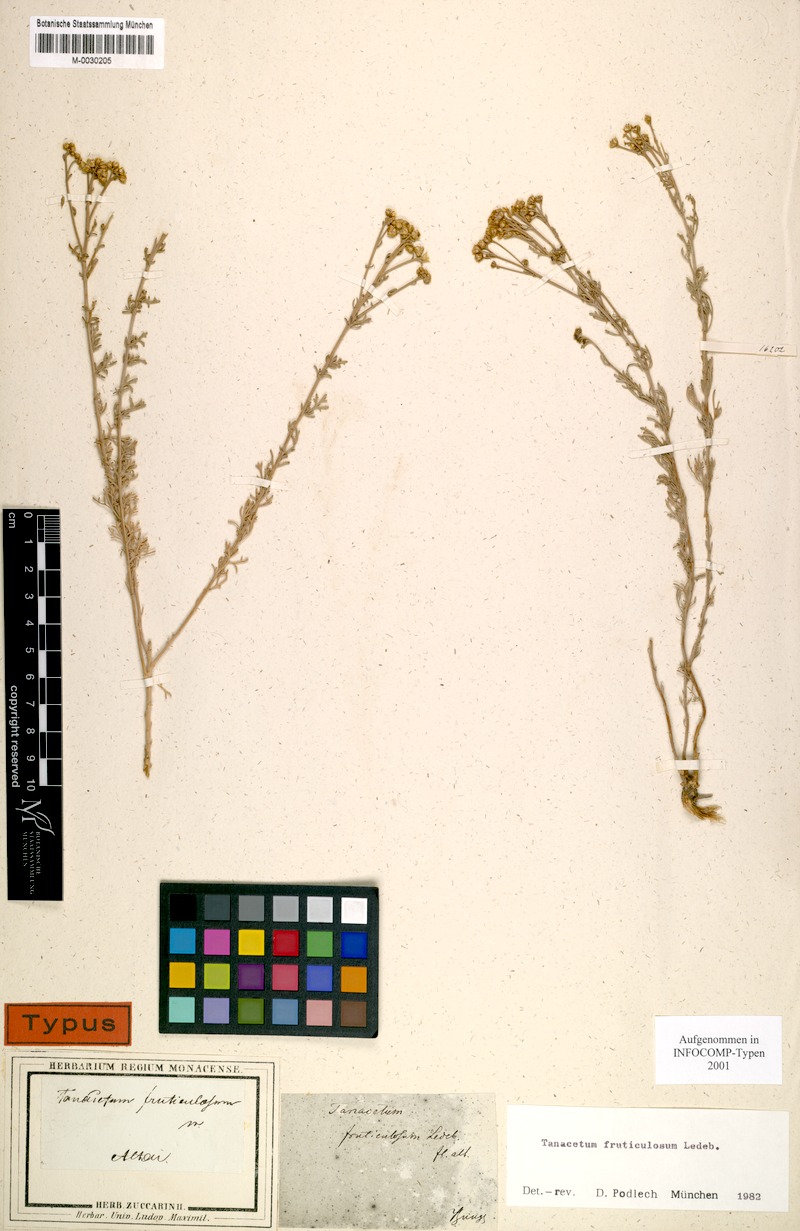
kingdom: Plantae
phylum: Tracheophyta
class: Magnoliopsida
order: Asterales
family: Asteraceae
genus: Ajania
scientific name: Ajania fruticulosa
